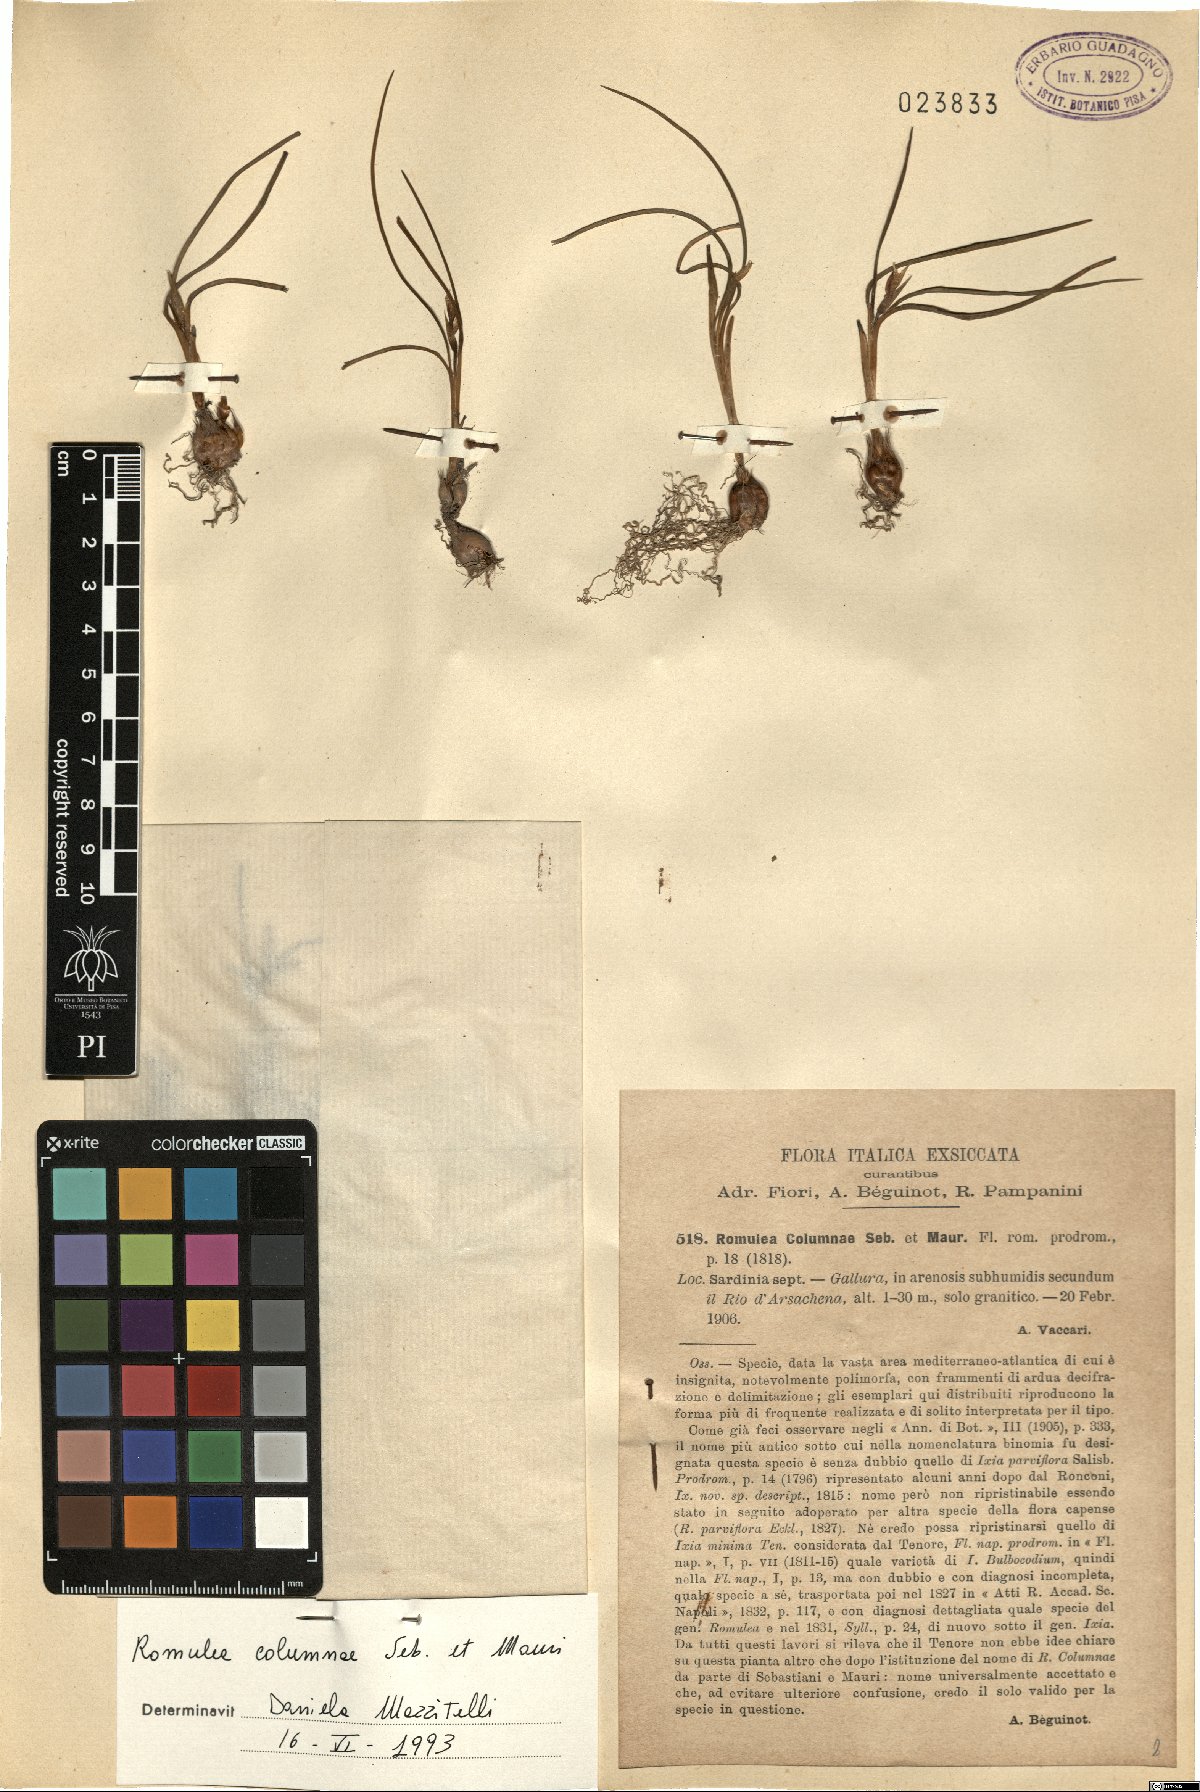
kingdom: Plantae
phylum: Tracheophyta
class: Liliopsida
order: Asparagales
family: Iridaceae
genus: Romulea
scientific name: Romulea columnae
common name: Sand-crocus
